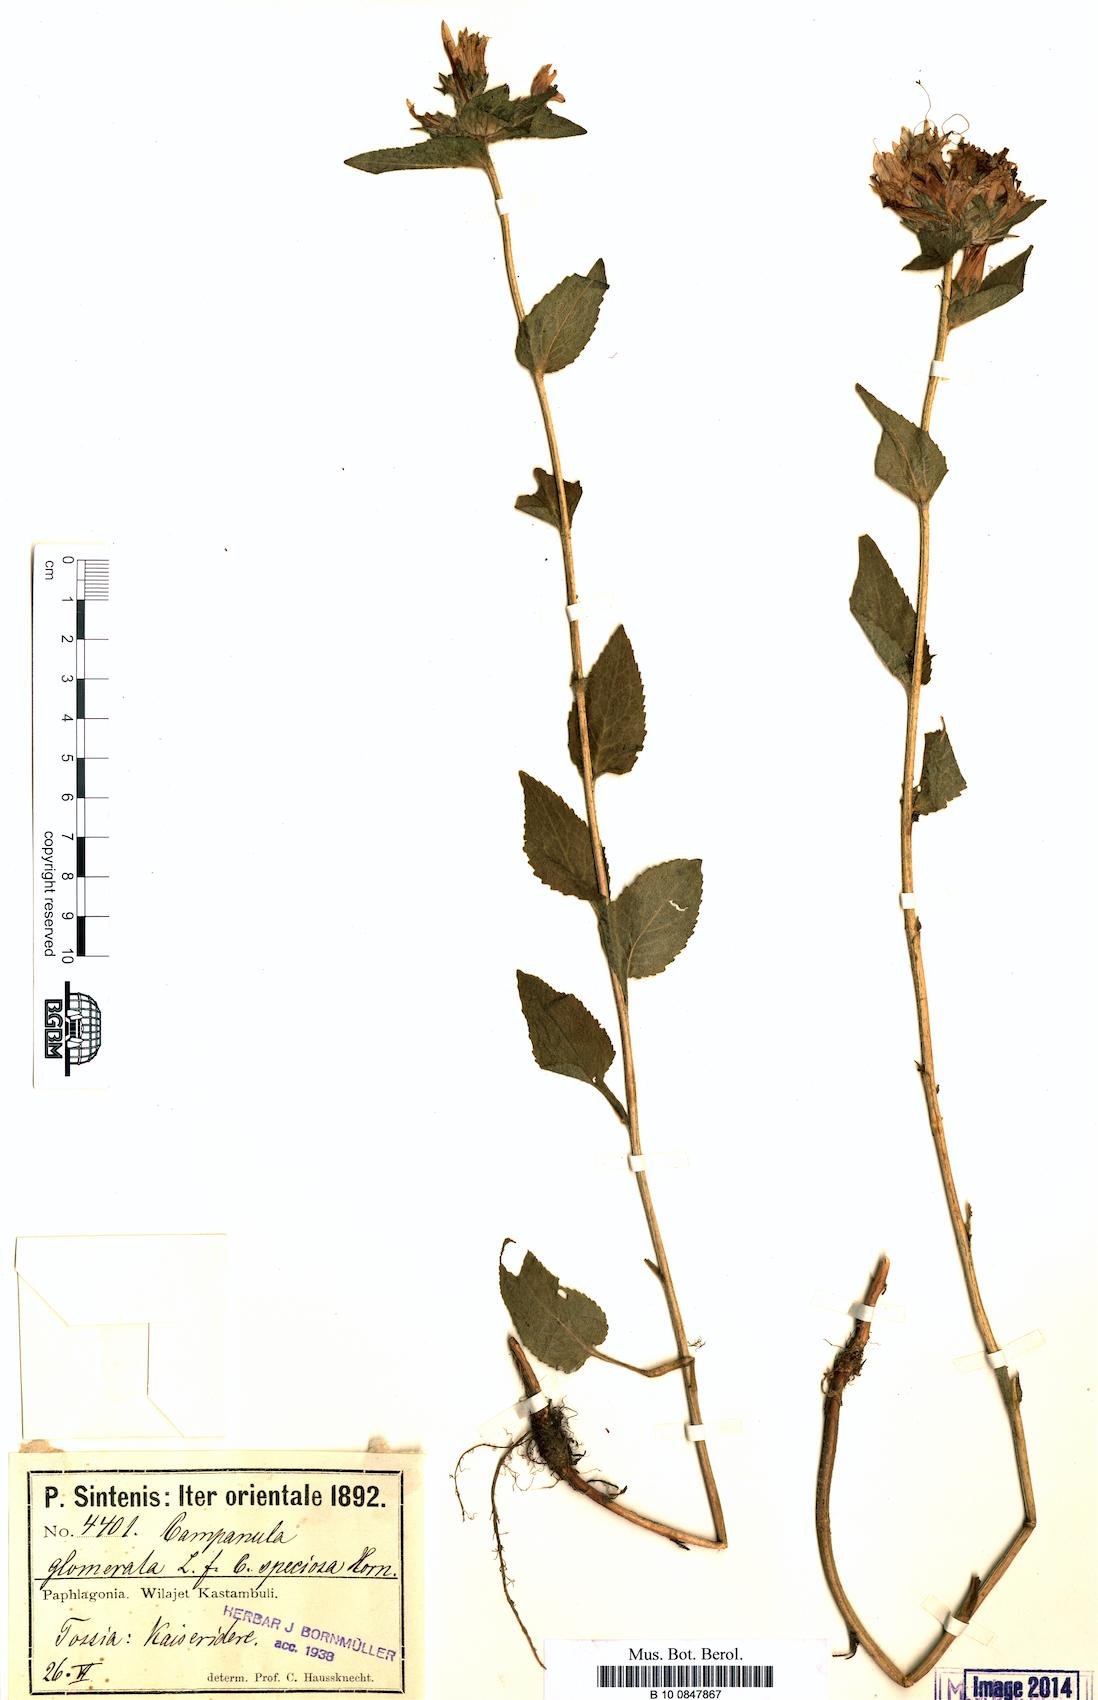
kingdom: Plantae
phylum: Tracheophyta
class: Magnoliopsida
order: Asterales
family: Campanulaceae
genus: Campanula
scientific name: Campanula glomerata
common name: Clustered bellflower
